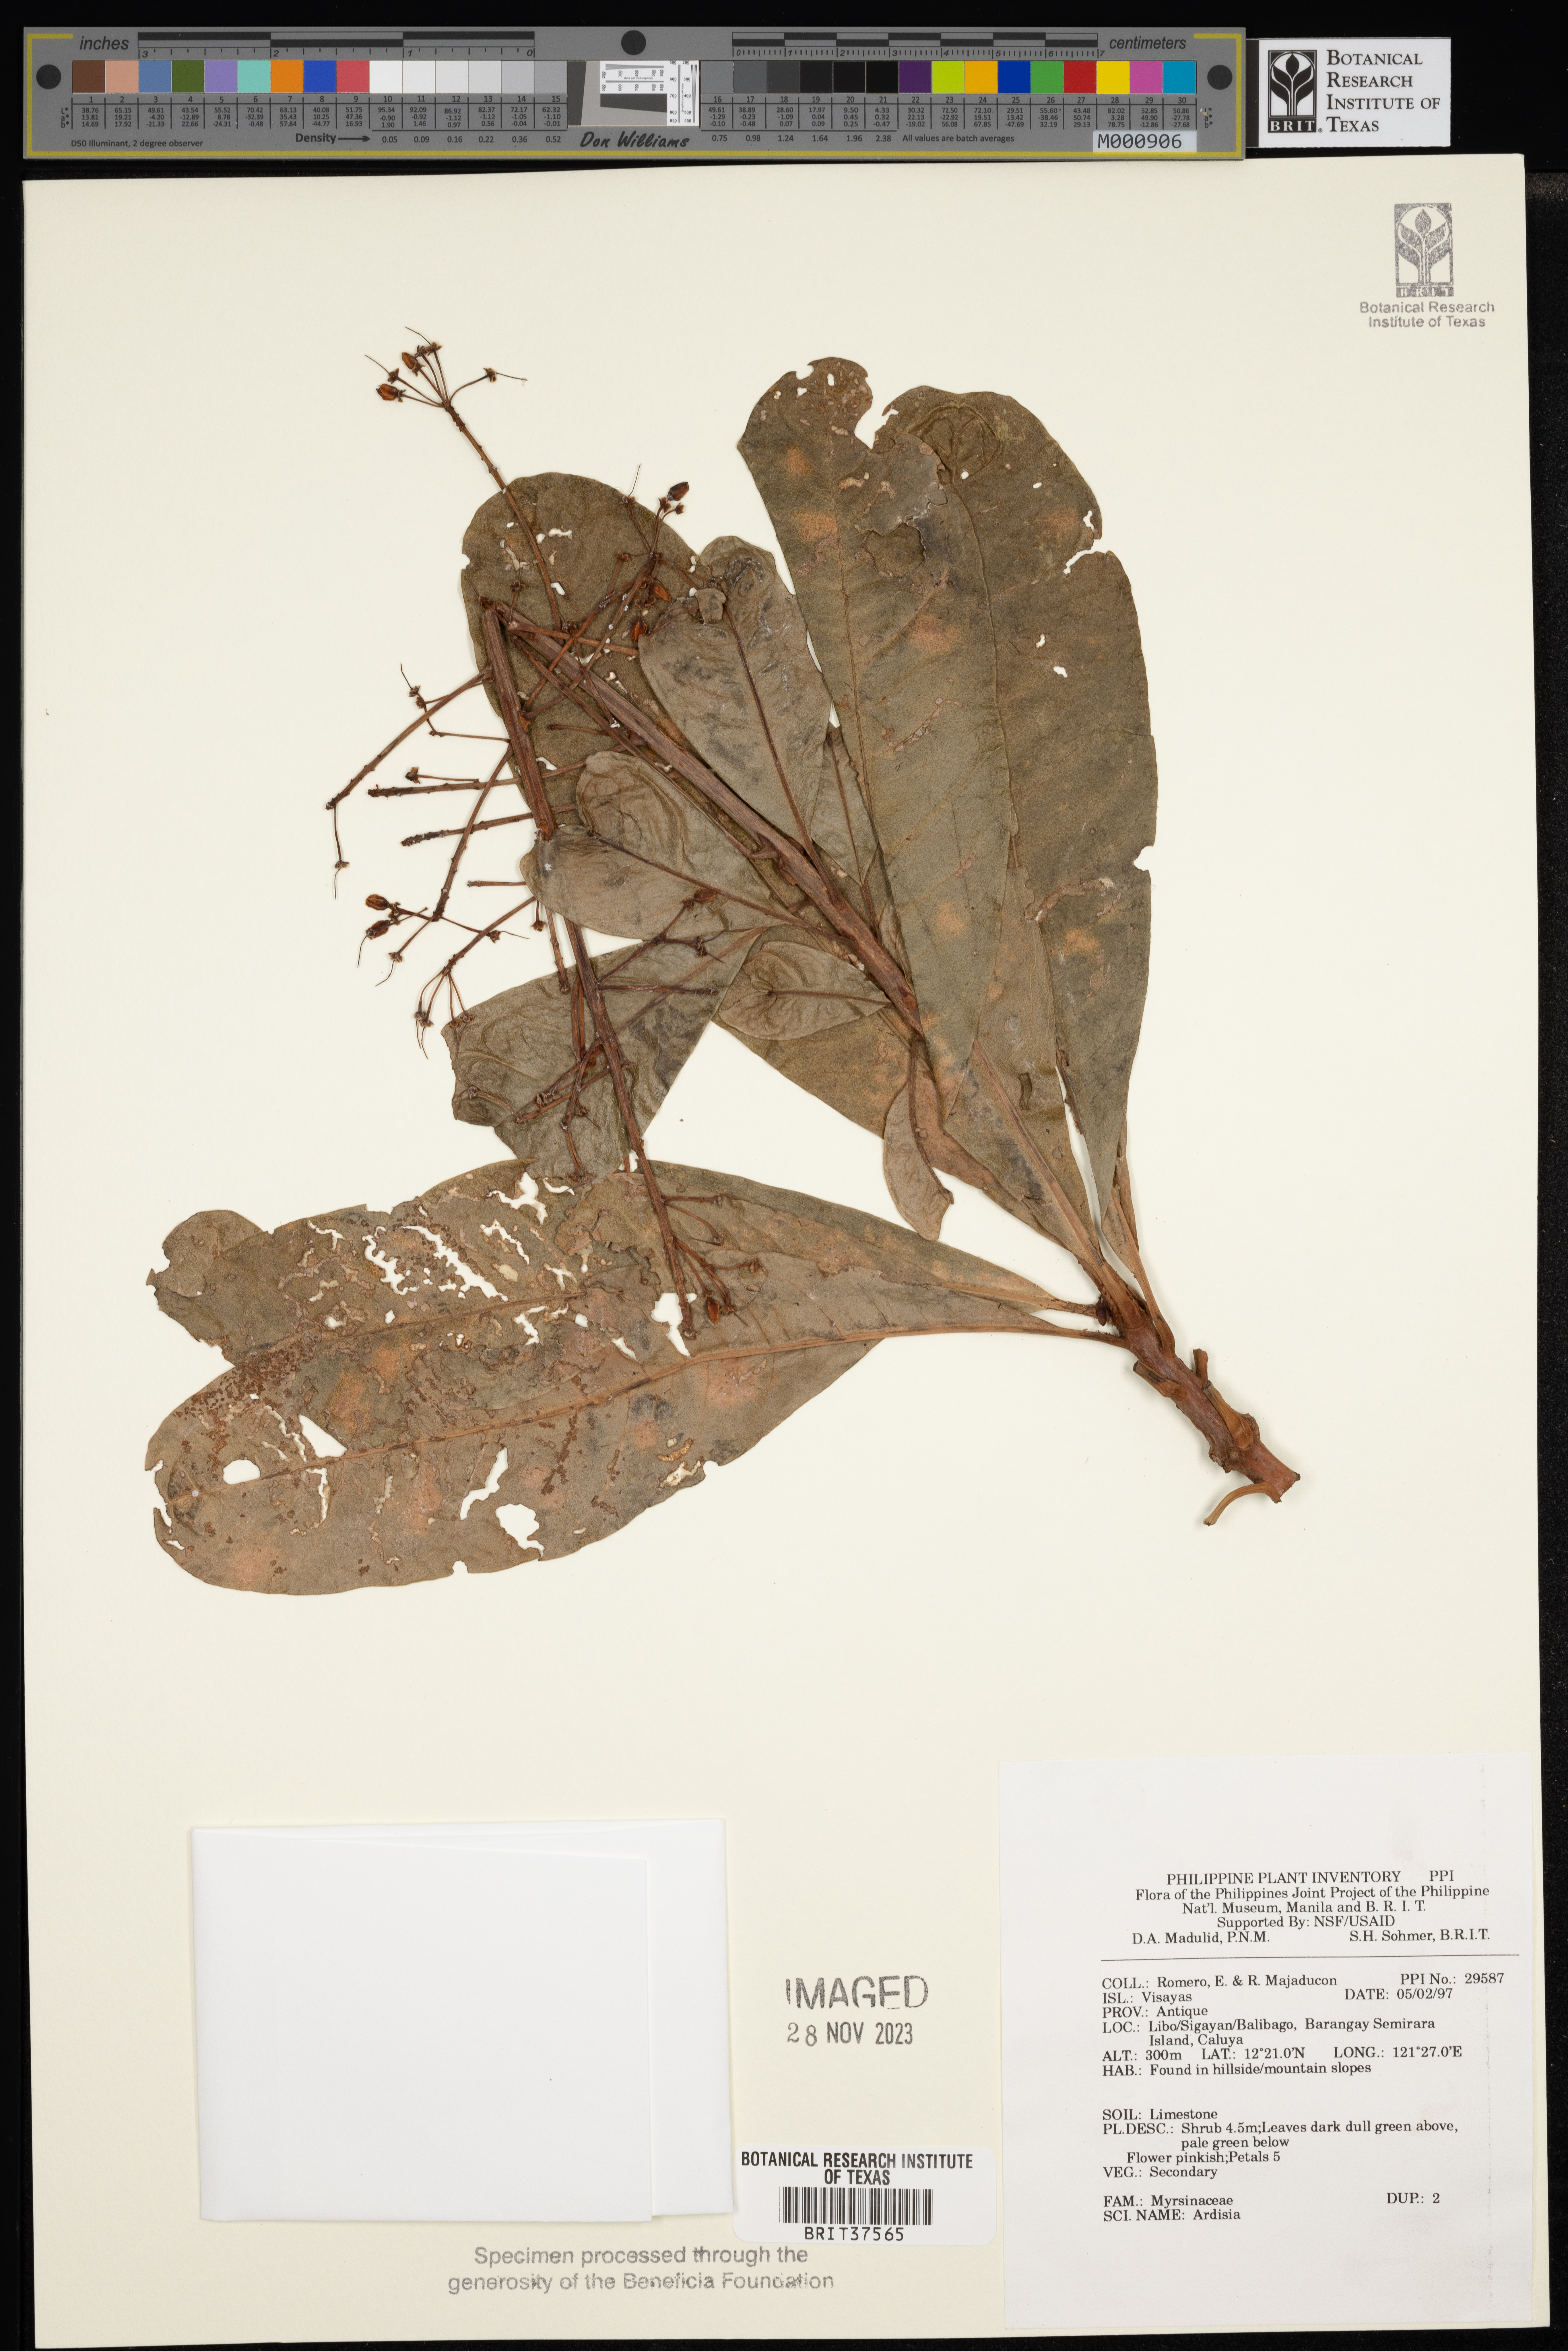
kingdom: Plantae
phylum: Tracheophyta
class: Magnoliopsida
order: Ericales
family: Primulaceae
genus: Ardisia
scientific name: Ardisia
